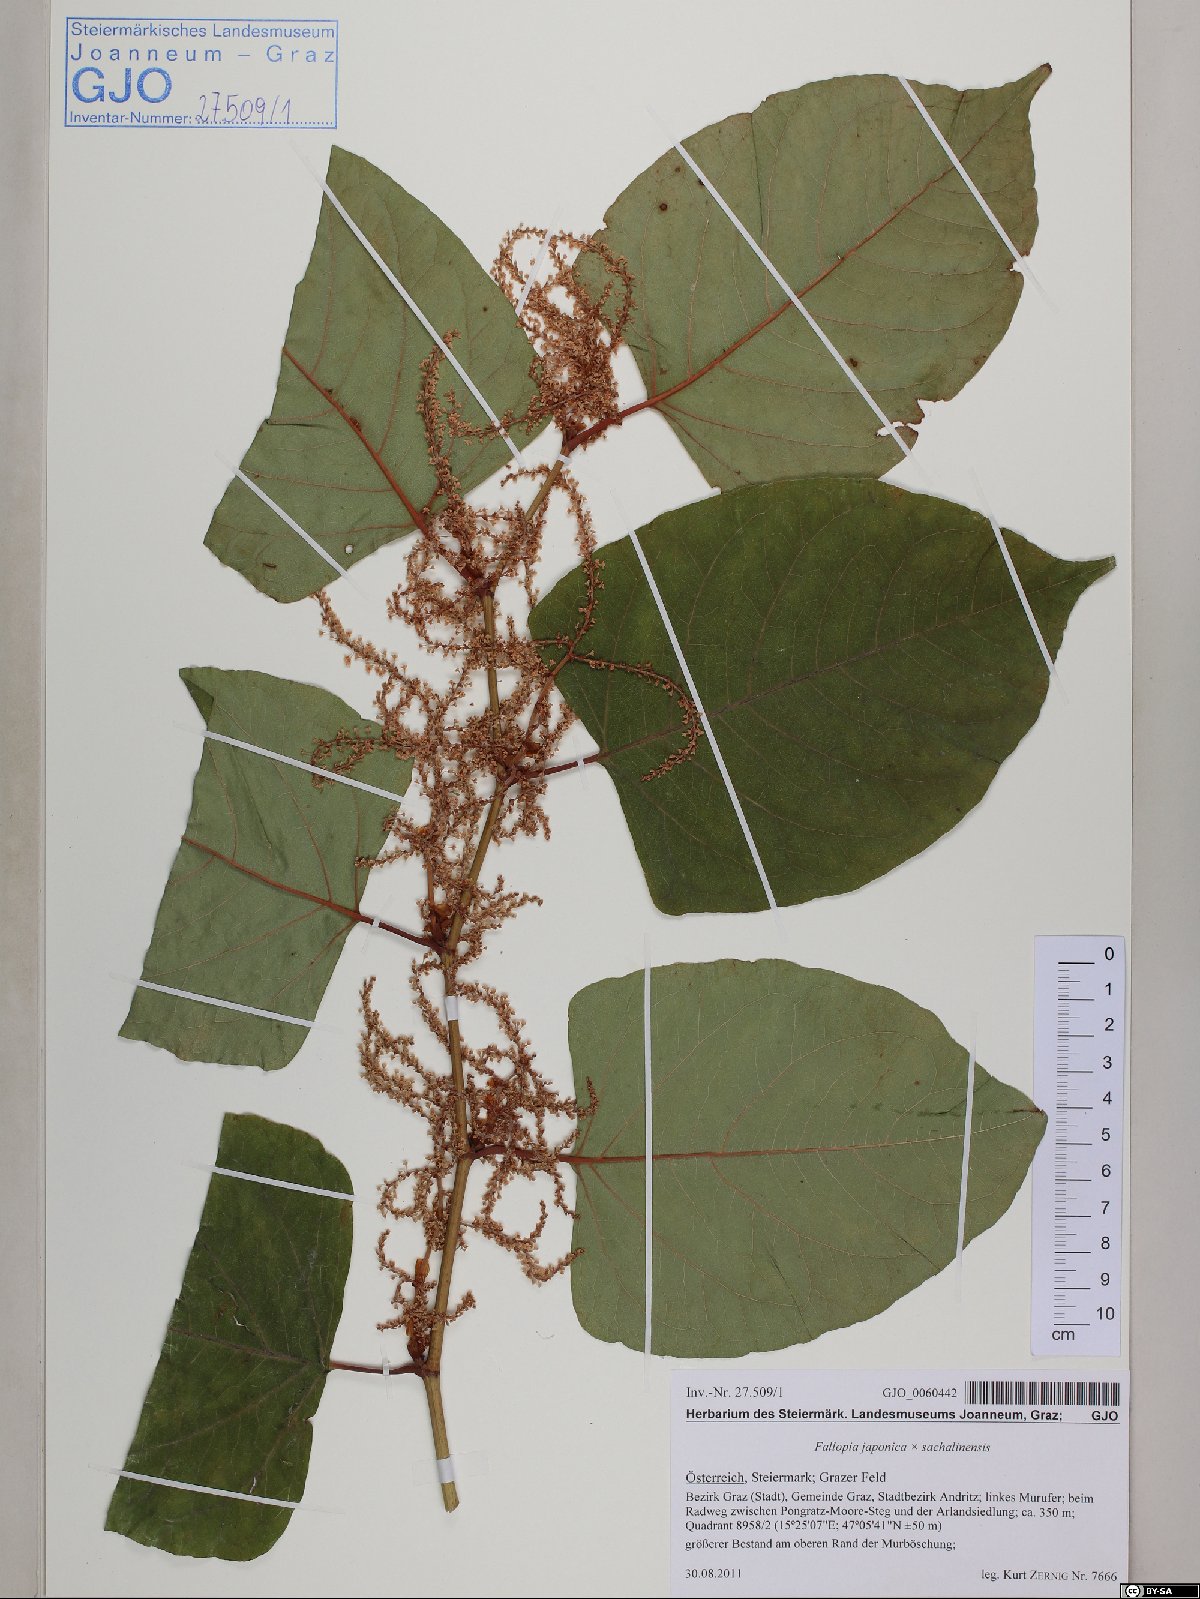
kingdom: Plantae
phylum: Tracheophyta
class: Magnoliopsida
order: Caryophyllales
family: Polygonaceae
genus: Reynoutria
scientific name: Reynoutria japonica
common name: Japanese knotweed
